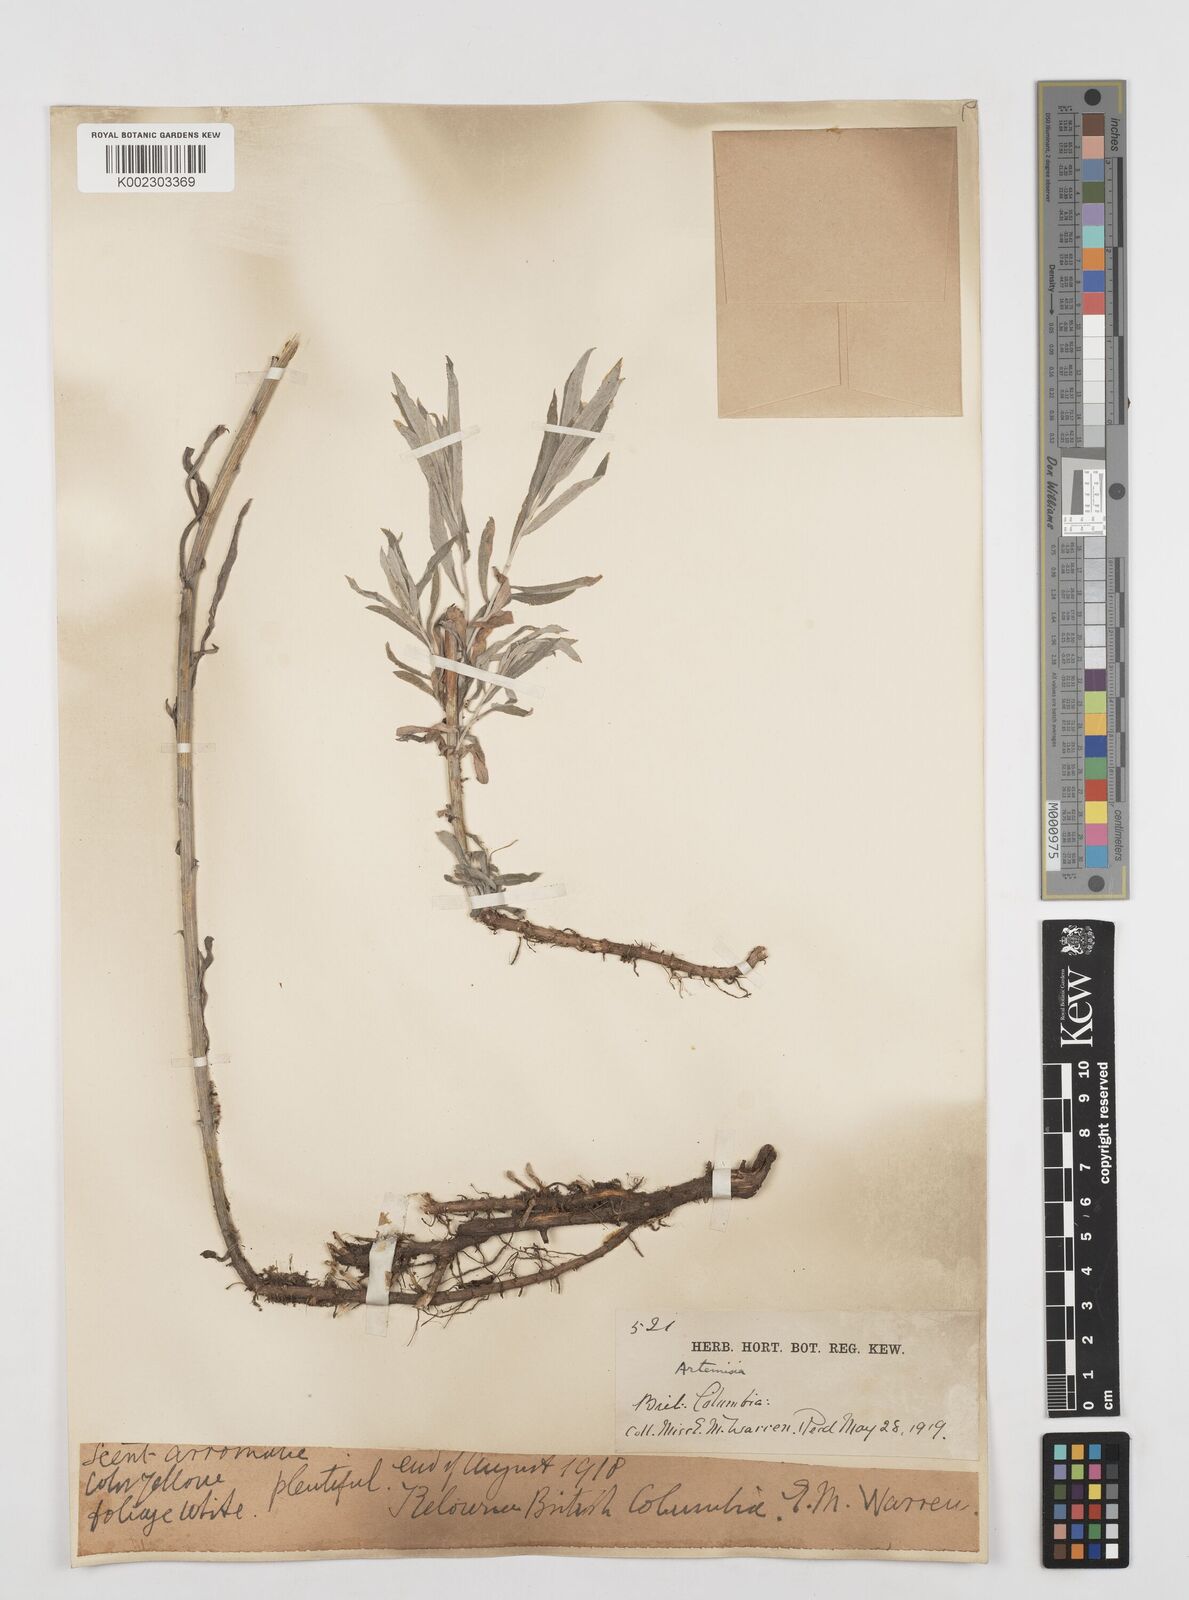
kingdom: Plantae
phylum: Tracheophyta
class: Magnoliopsida
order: Asterales
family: Asteraceae
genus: Artemisia
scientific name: Artemisia
